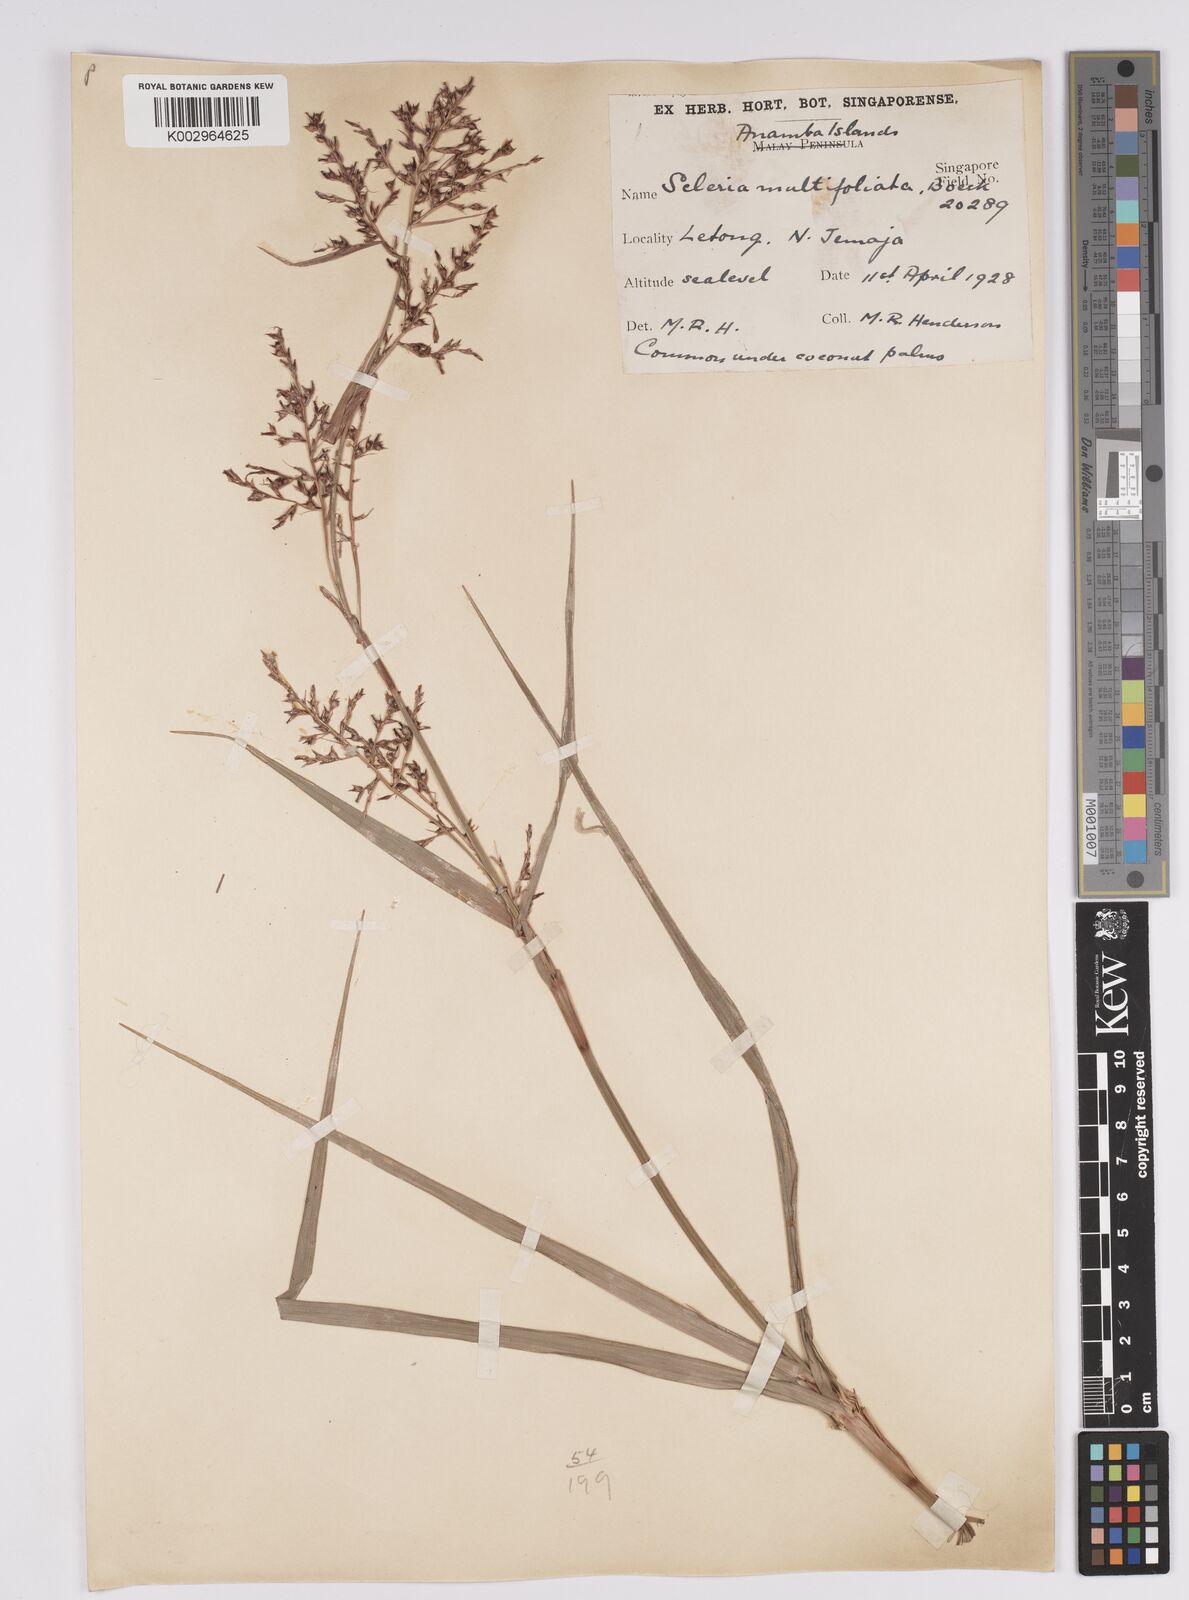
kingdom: Plantae
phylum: Tracheophyta
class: Liliopsida
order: Poales
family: Cyperaceae
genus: Scleria
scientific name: Scleria purpurascens
